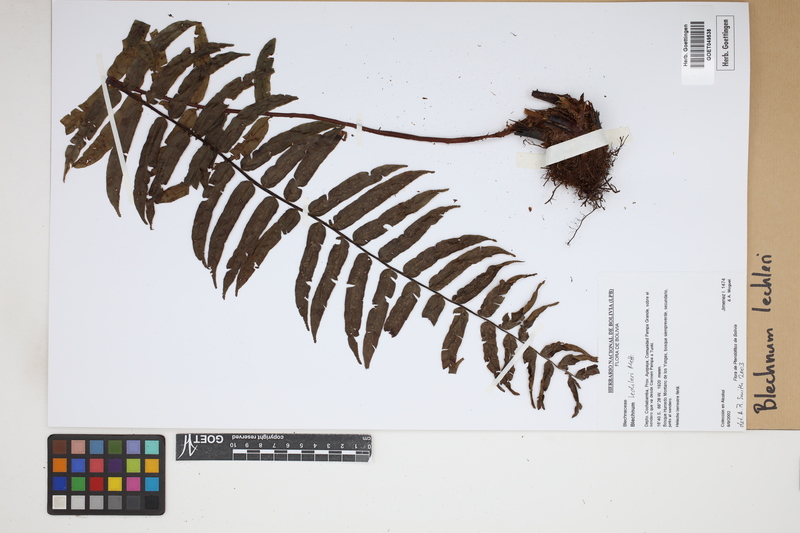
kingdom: Plantae
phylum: Tracheophyta
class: Polypodiopsida
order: Polypodiales
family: Blechnaceae
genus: Parablechnum
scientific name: Parablechnum lechleri
